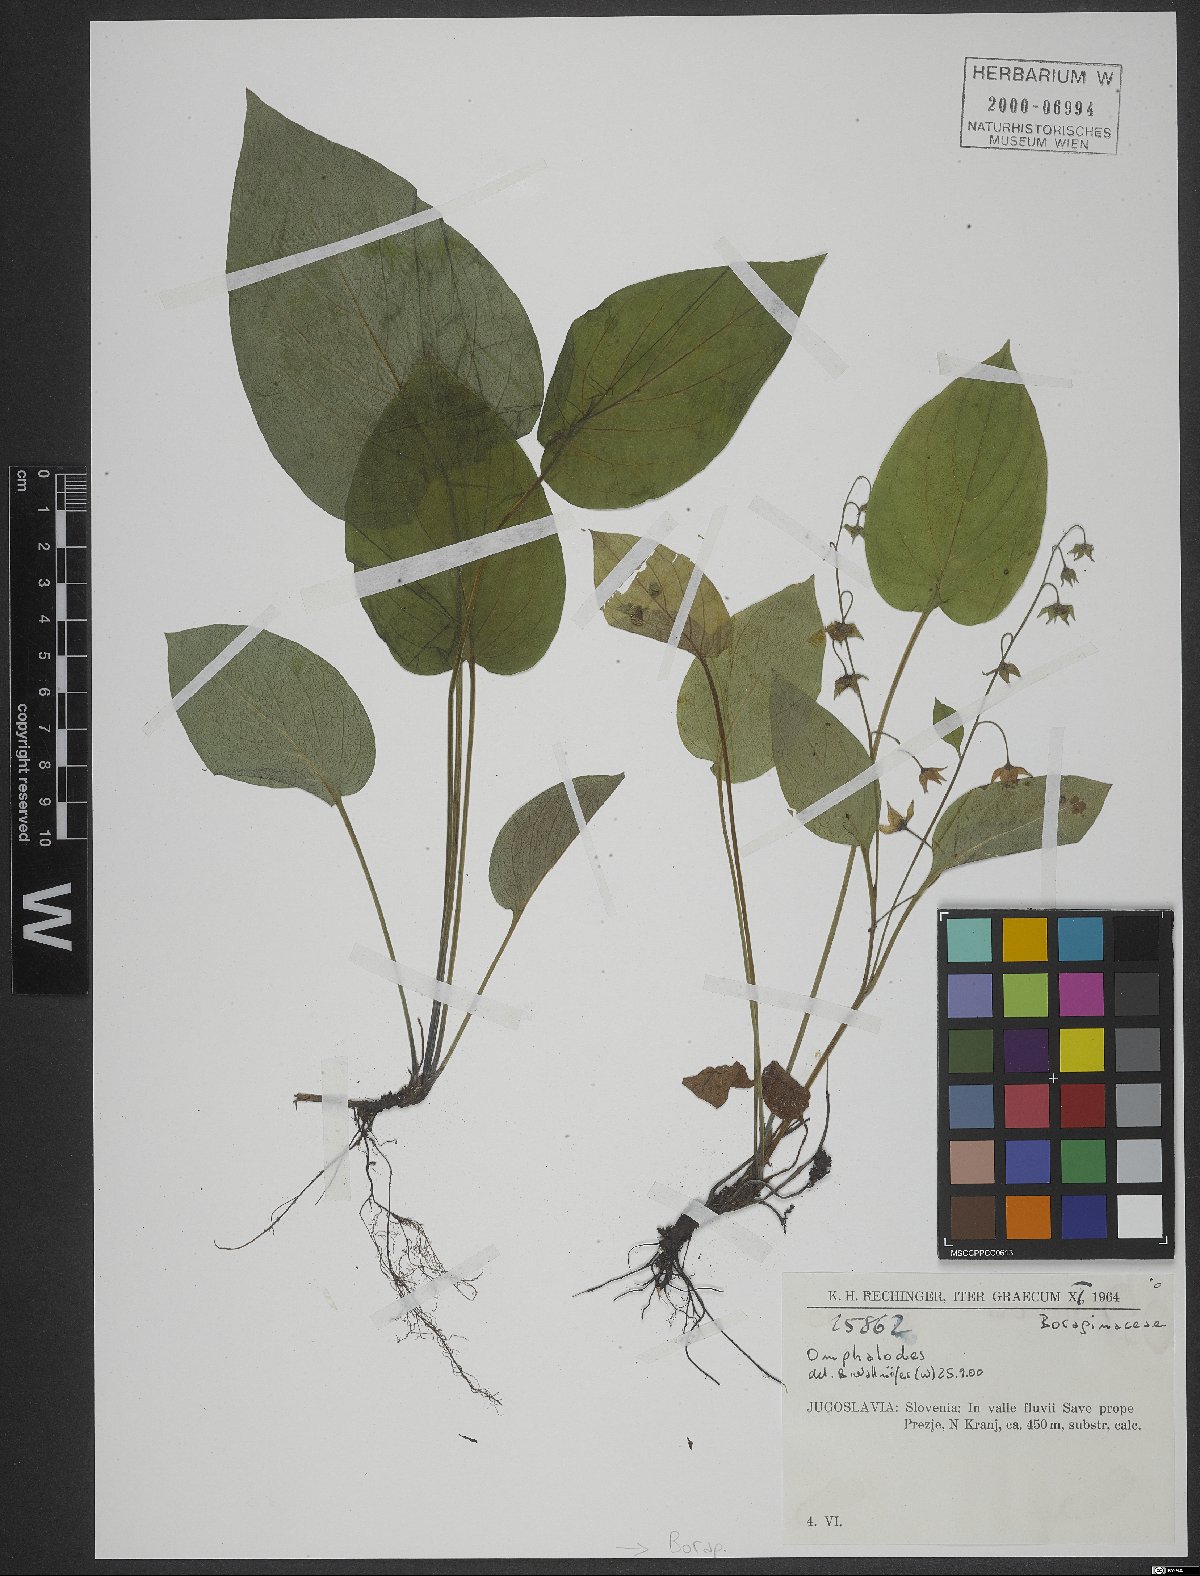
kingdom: Plantae
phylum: Tracheophyta
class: Magnoliopsida
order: Boraginales
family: Boraginaceae
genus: Omphalodes
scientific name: Omphalodes
